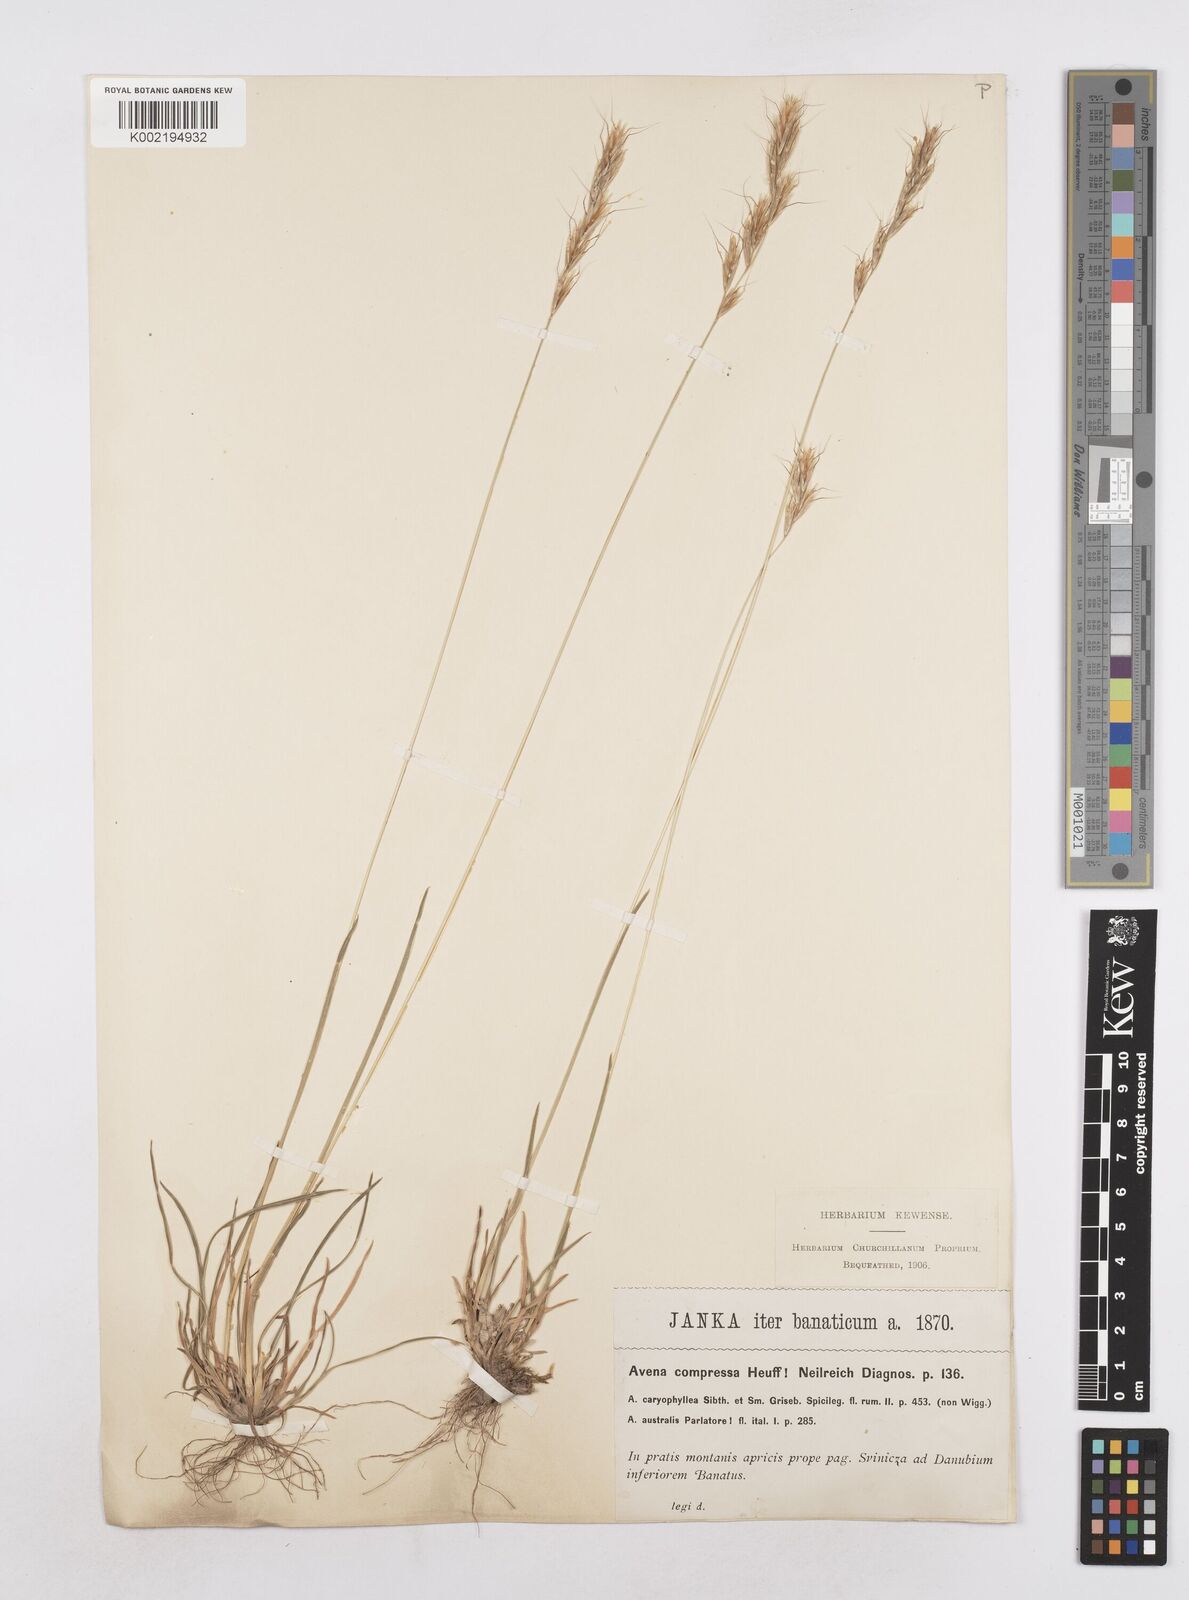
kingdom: Plantae
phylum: Tracheophyta
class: Liliopsida
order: Poales
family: Poaceae
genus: Helictochloa
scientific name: Helictochloa compressa
